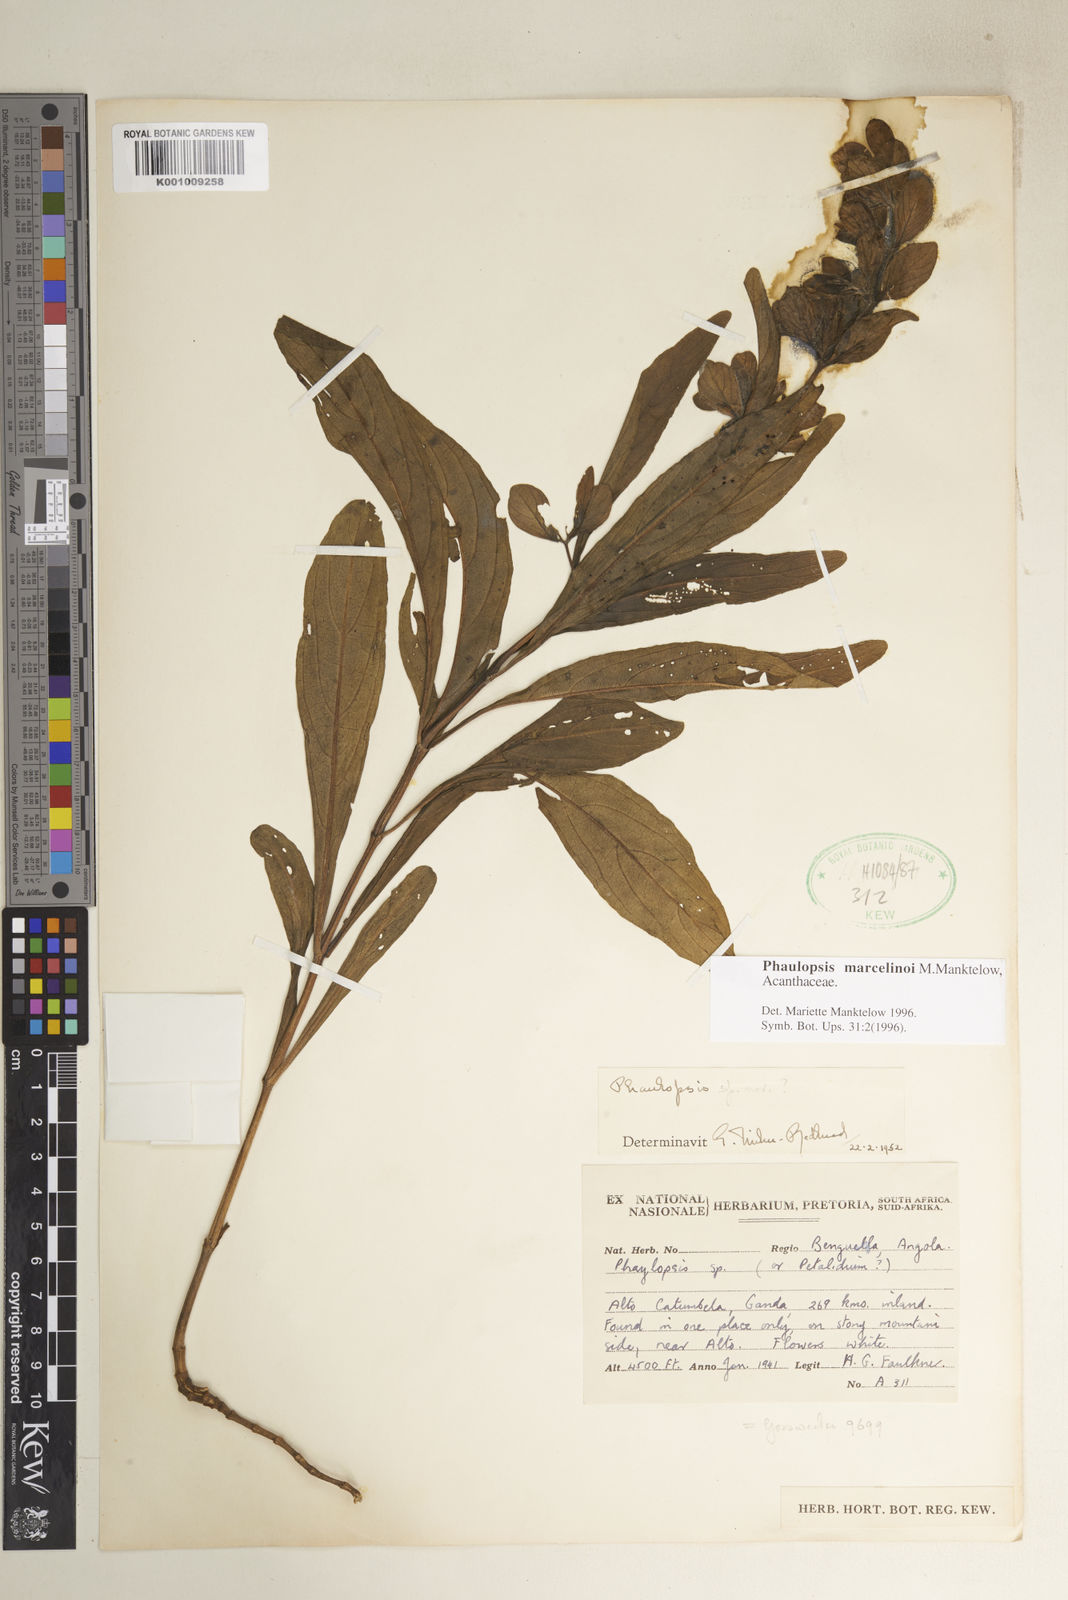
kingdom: Plantae
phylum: Tracheophyta
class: Magnoliopsida
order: Lamiales
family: Acanthaceae
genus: Phaulopsis
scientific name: Phaulopsis marcelinoi
